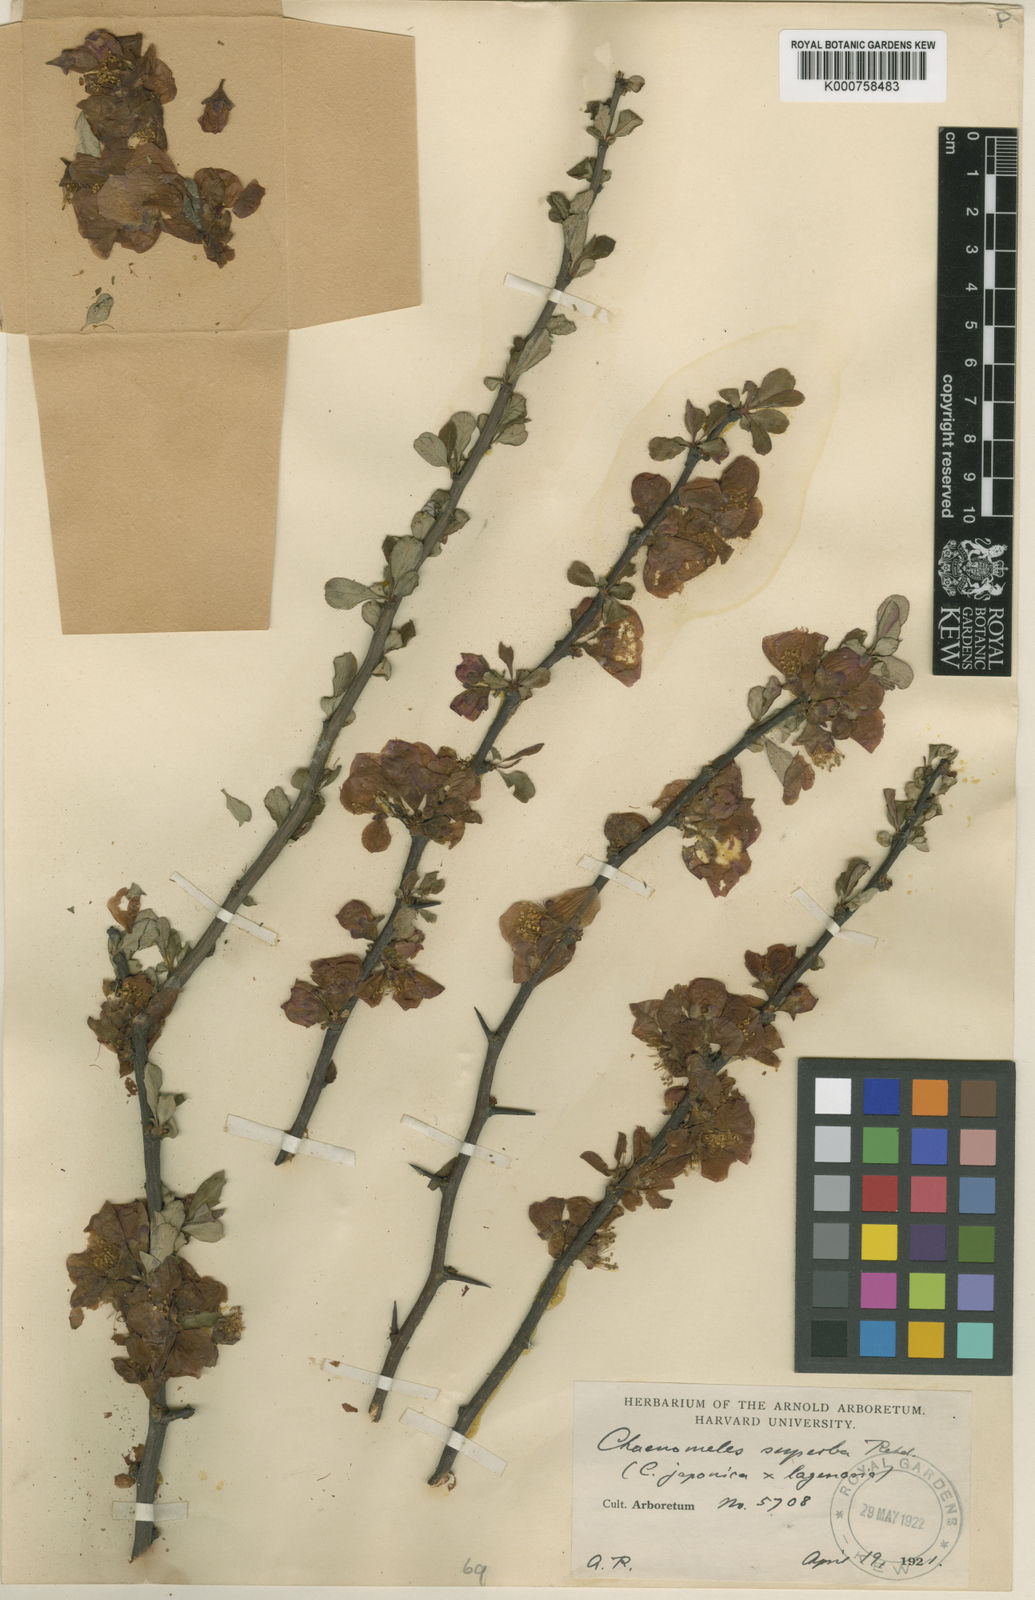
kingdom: Plantae
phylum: Tracheophyta
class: Magnoliopsida
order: Rosales
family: Rosaceae
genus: Chaenomeles
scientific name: Chaenomeles superba
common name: Quince
